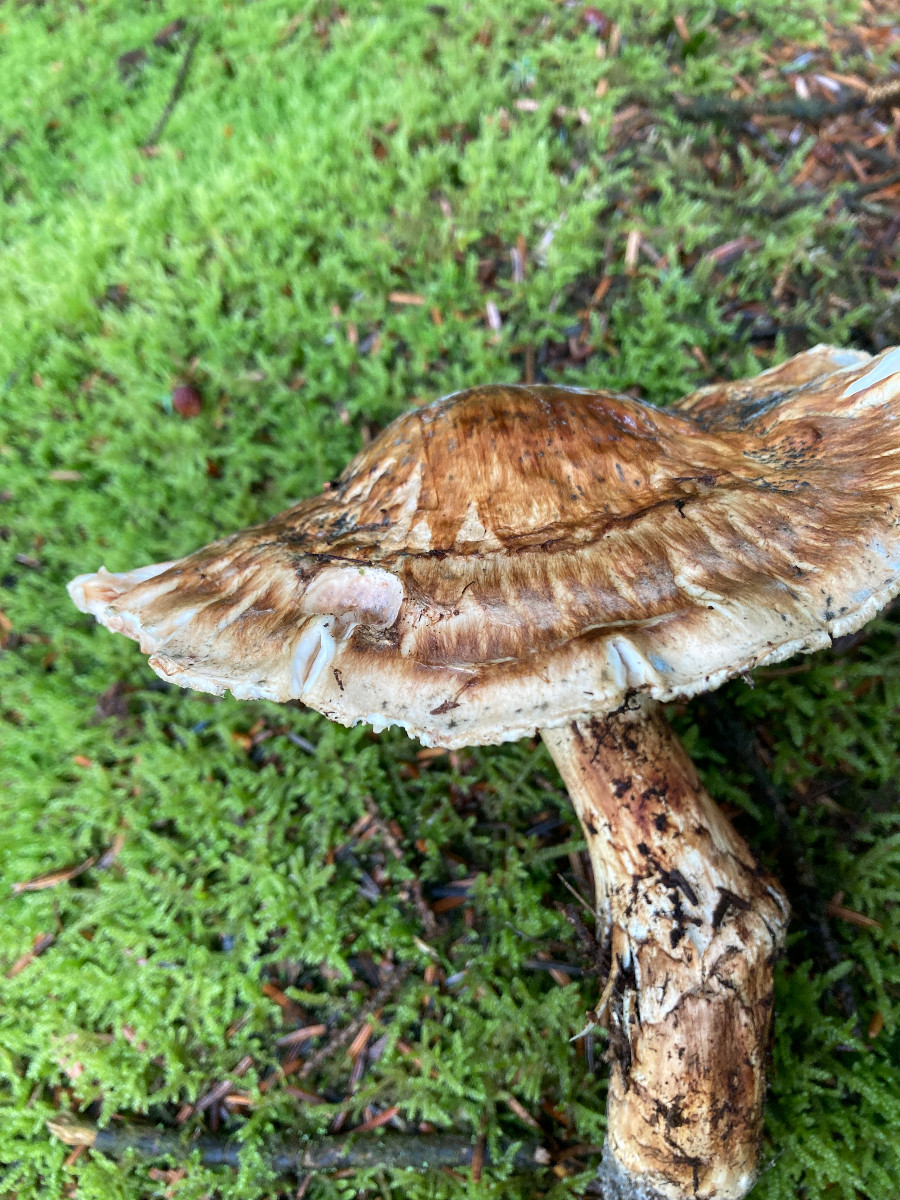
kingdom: Fungi
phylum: Basidiomycota
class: Agaricomycetes
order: Agaricales
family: Tricholomataceae
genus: Tricholoma
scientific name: Tricholoma matsutake
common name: duft-ridderhat
